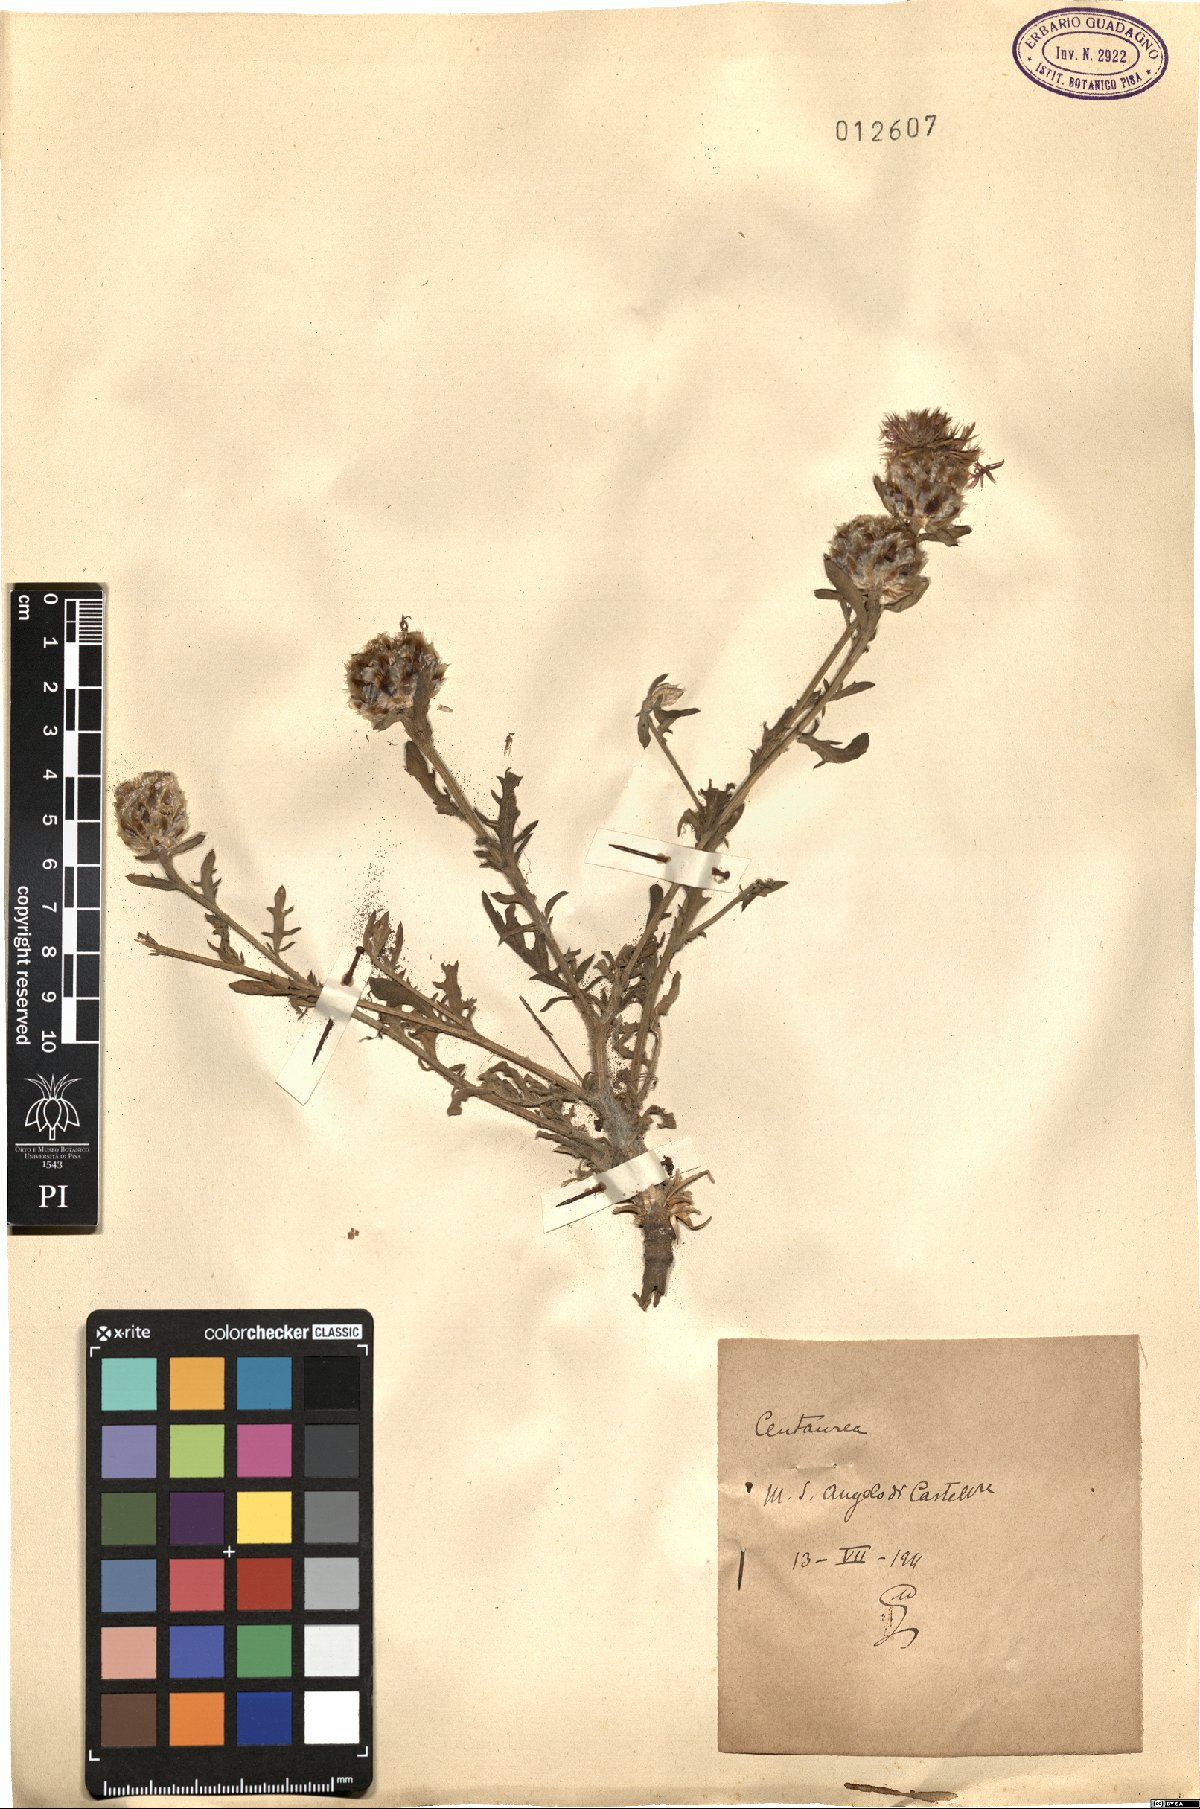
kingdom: Plantae
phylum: Tracheophyta
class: Magnoliopsida
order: Asterales
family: Asteraceae
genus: Centaurea
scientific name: Centaurea
